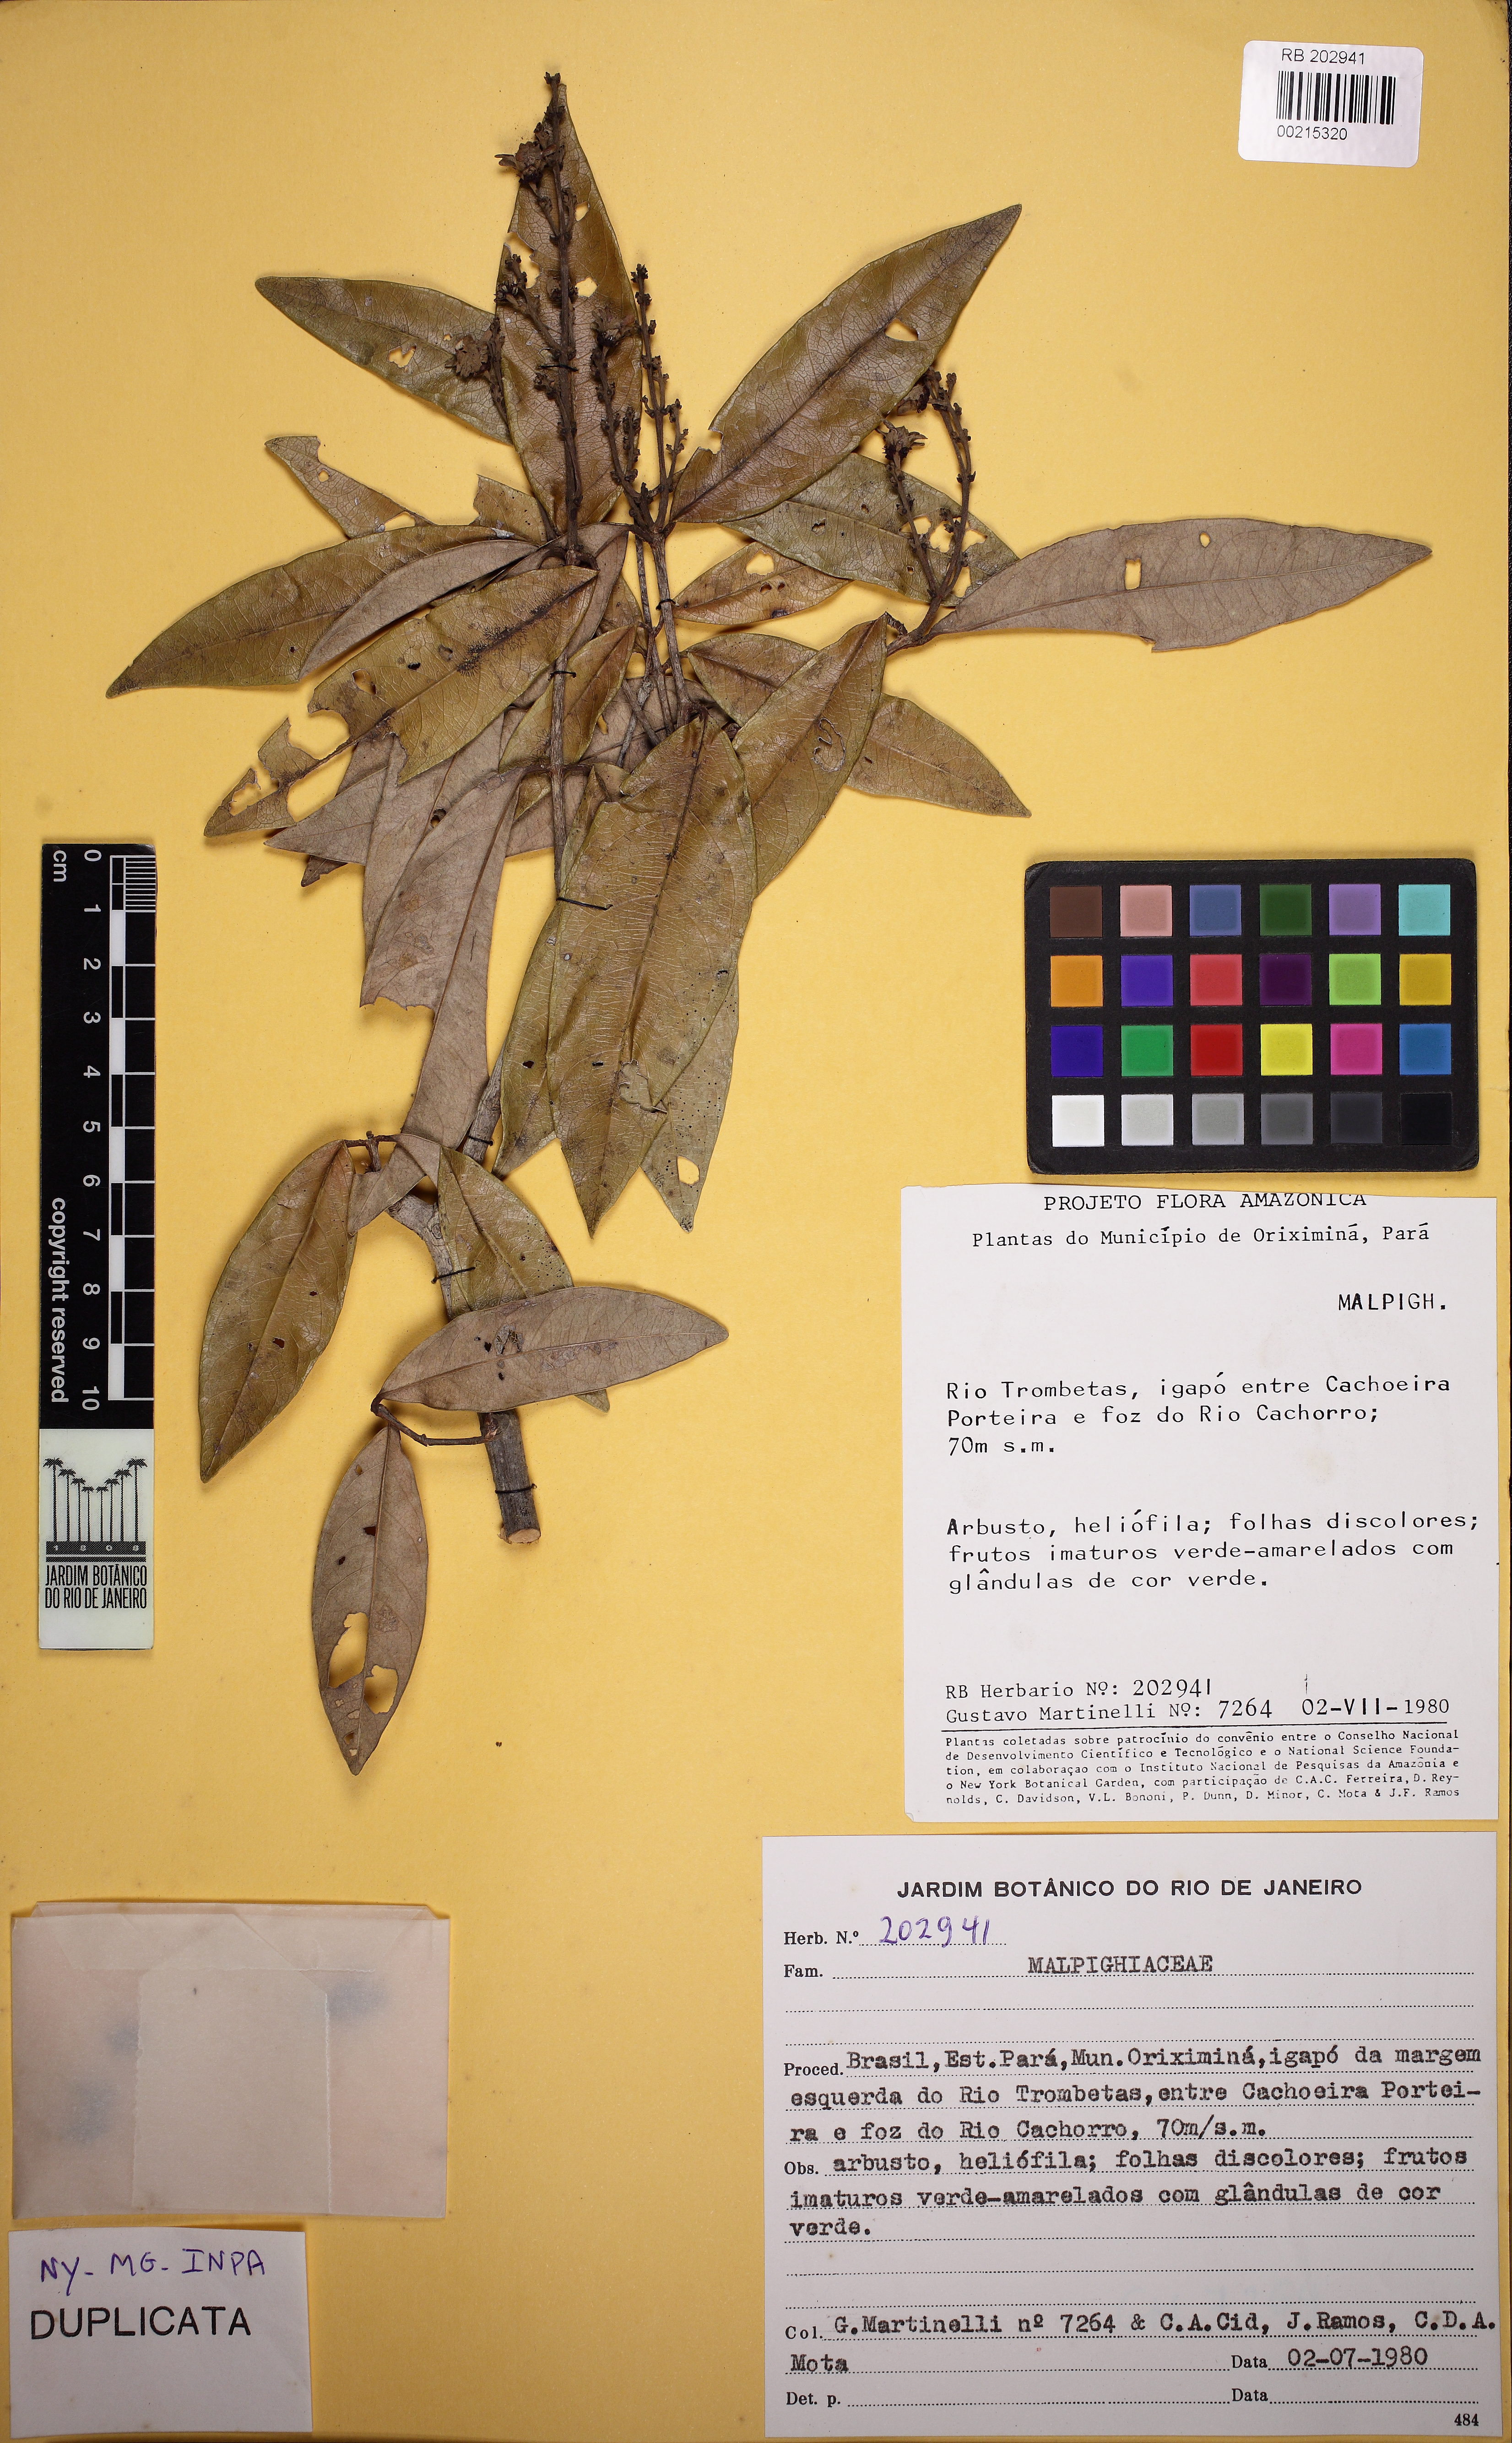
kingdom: Plantae
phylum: Tracheophyta
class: Magnoliopsida
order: Malpighiales
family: Malpighiaceae
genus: Niedenzuella
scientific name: Niedenzuella
